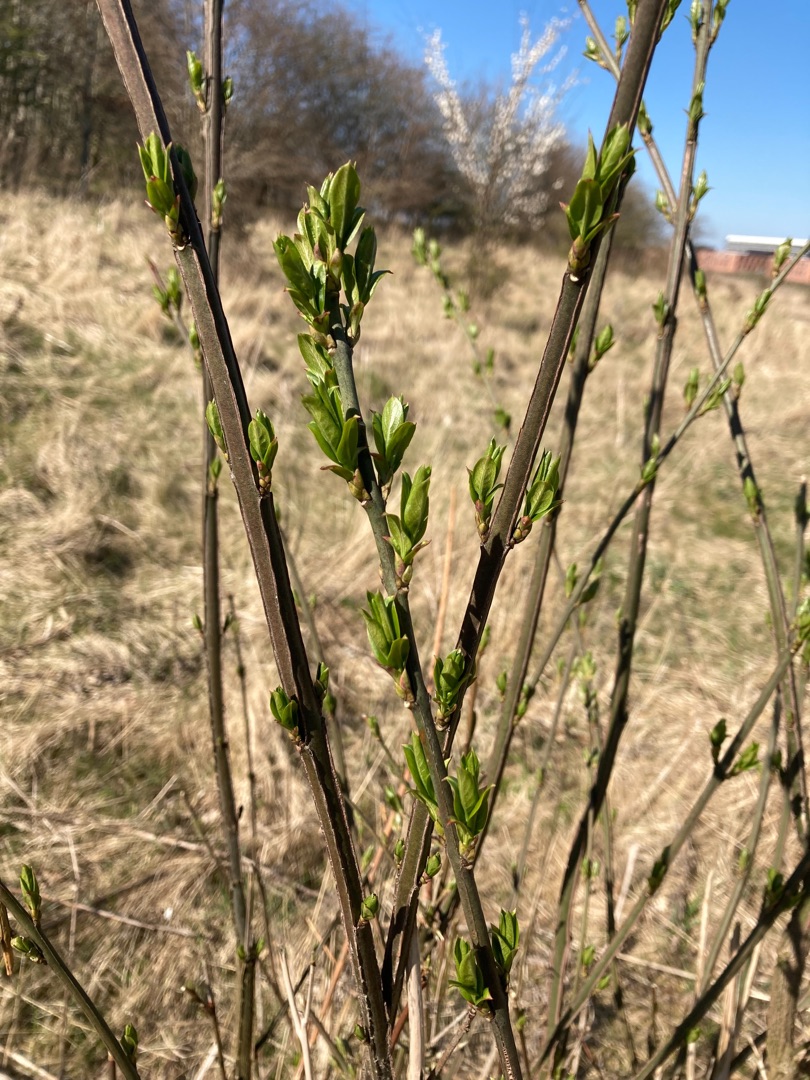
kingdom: Plantae
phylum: Tracheophyta
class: Magnoliopsida
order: Celastrales
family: Celastraceae
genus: Euonymus
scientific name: Euonymus europaeus
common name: Benved
